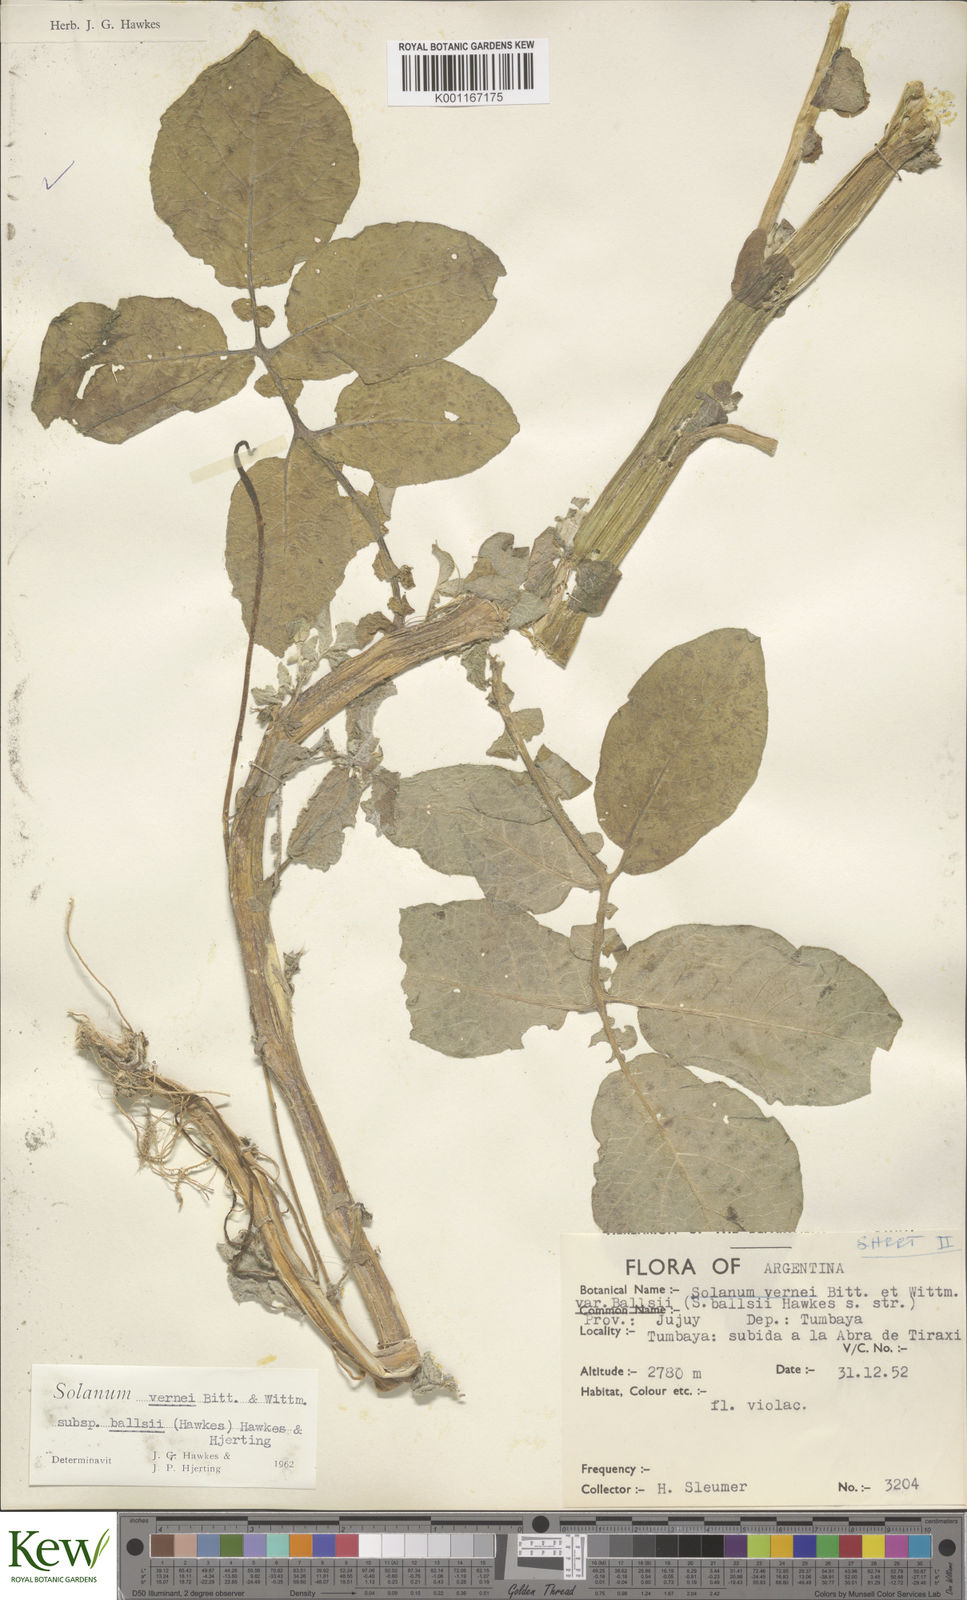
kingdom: Plantae
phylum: Tracheophyta
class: Magnoliopsida
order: Solanales
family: Solanaceae
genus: Solanum
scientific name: Solanum vernei
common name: Purple potato
